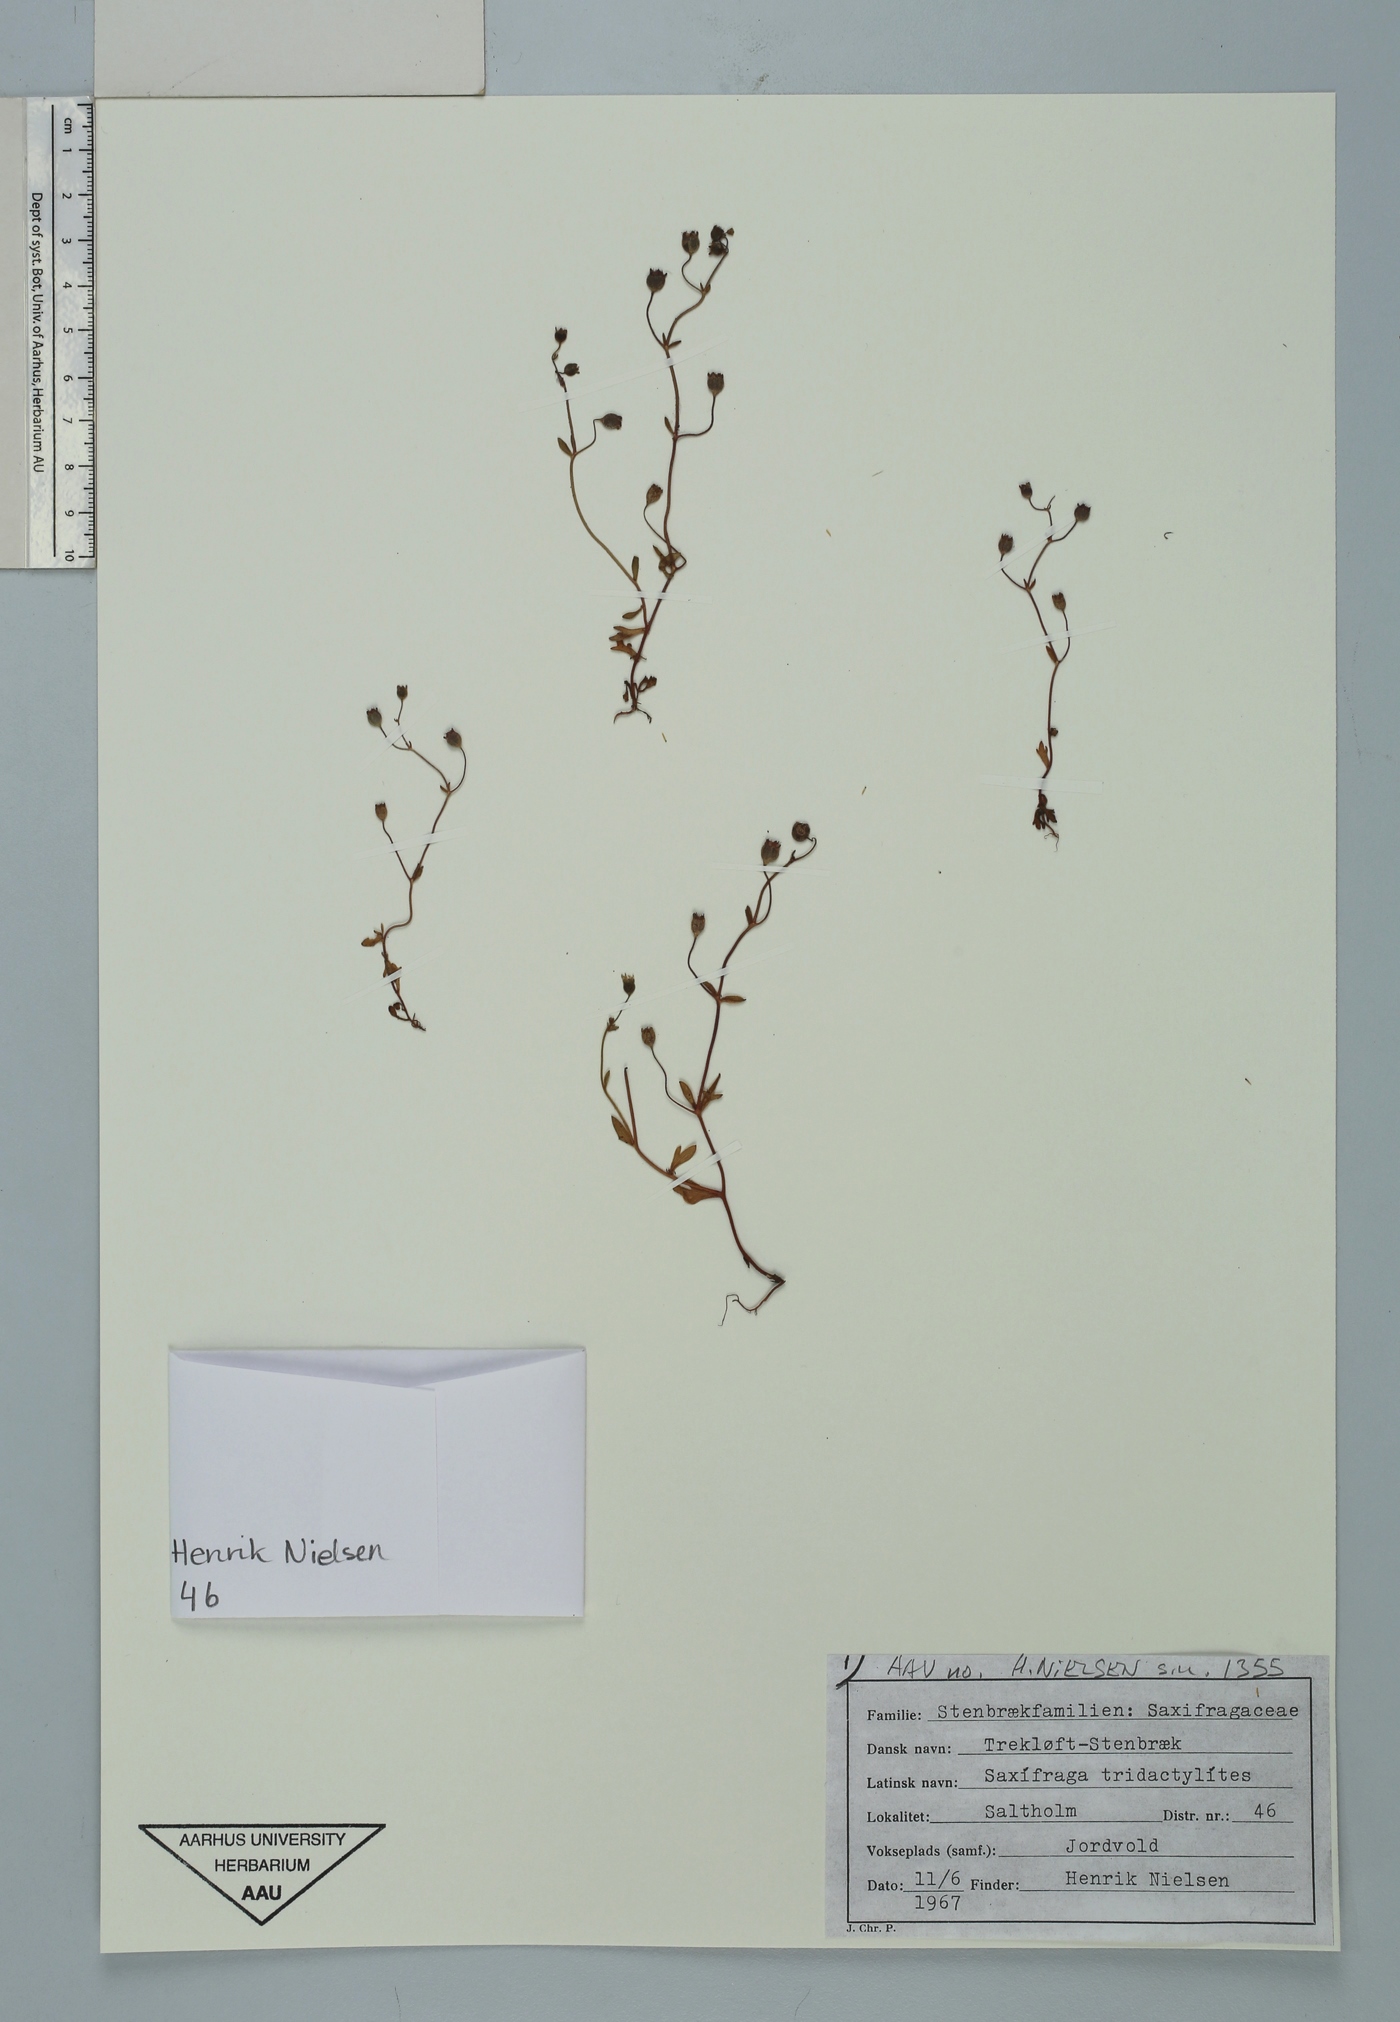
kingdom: Plantae
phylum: Tracheophyta
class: Magnoliopsida
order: Saxifragales
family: Saxifragaceae
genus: Saxifraga
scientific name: Saxifraga tridactylites
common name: Rue-leaved saxifrage
